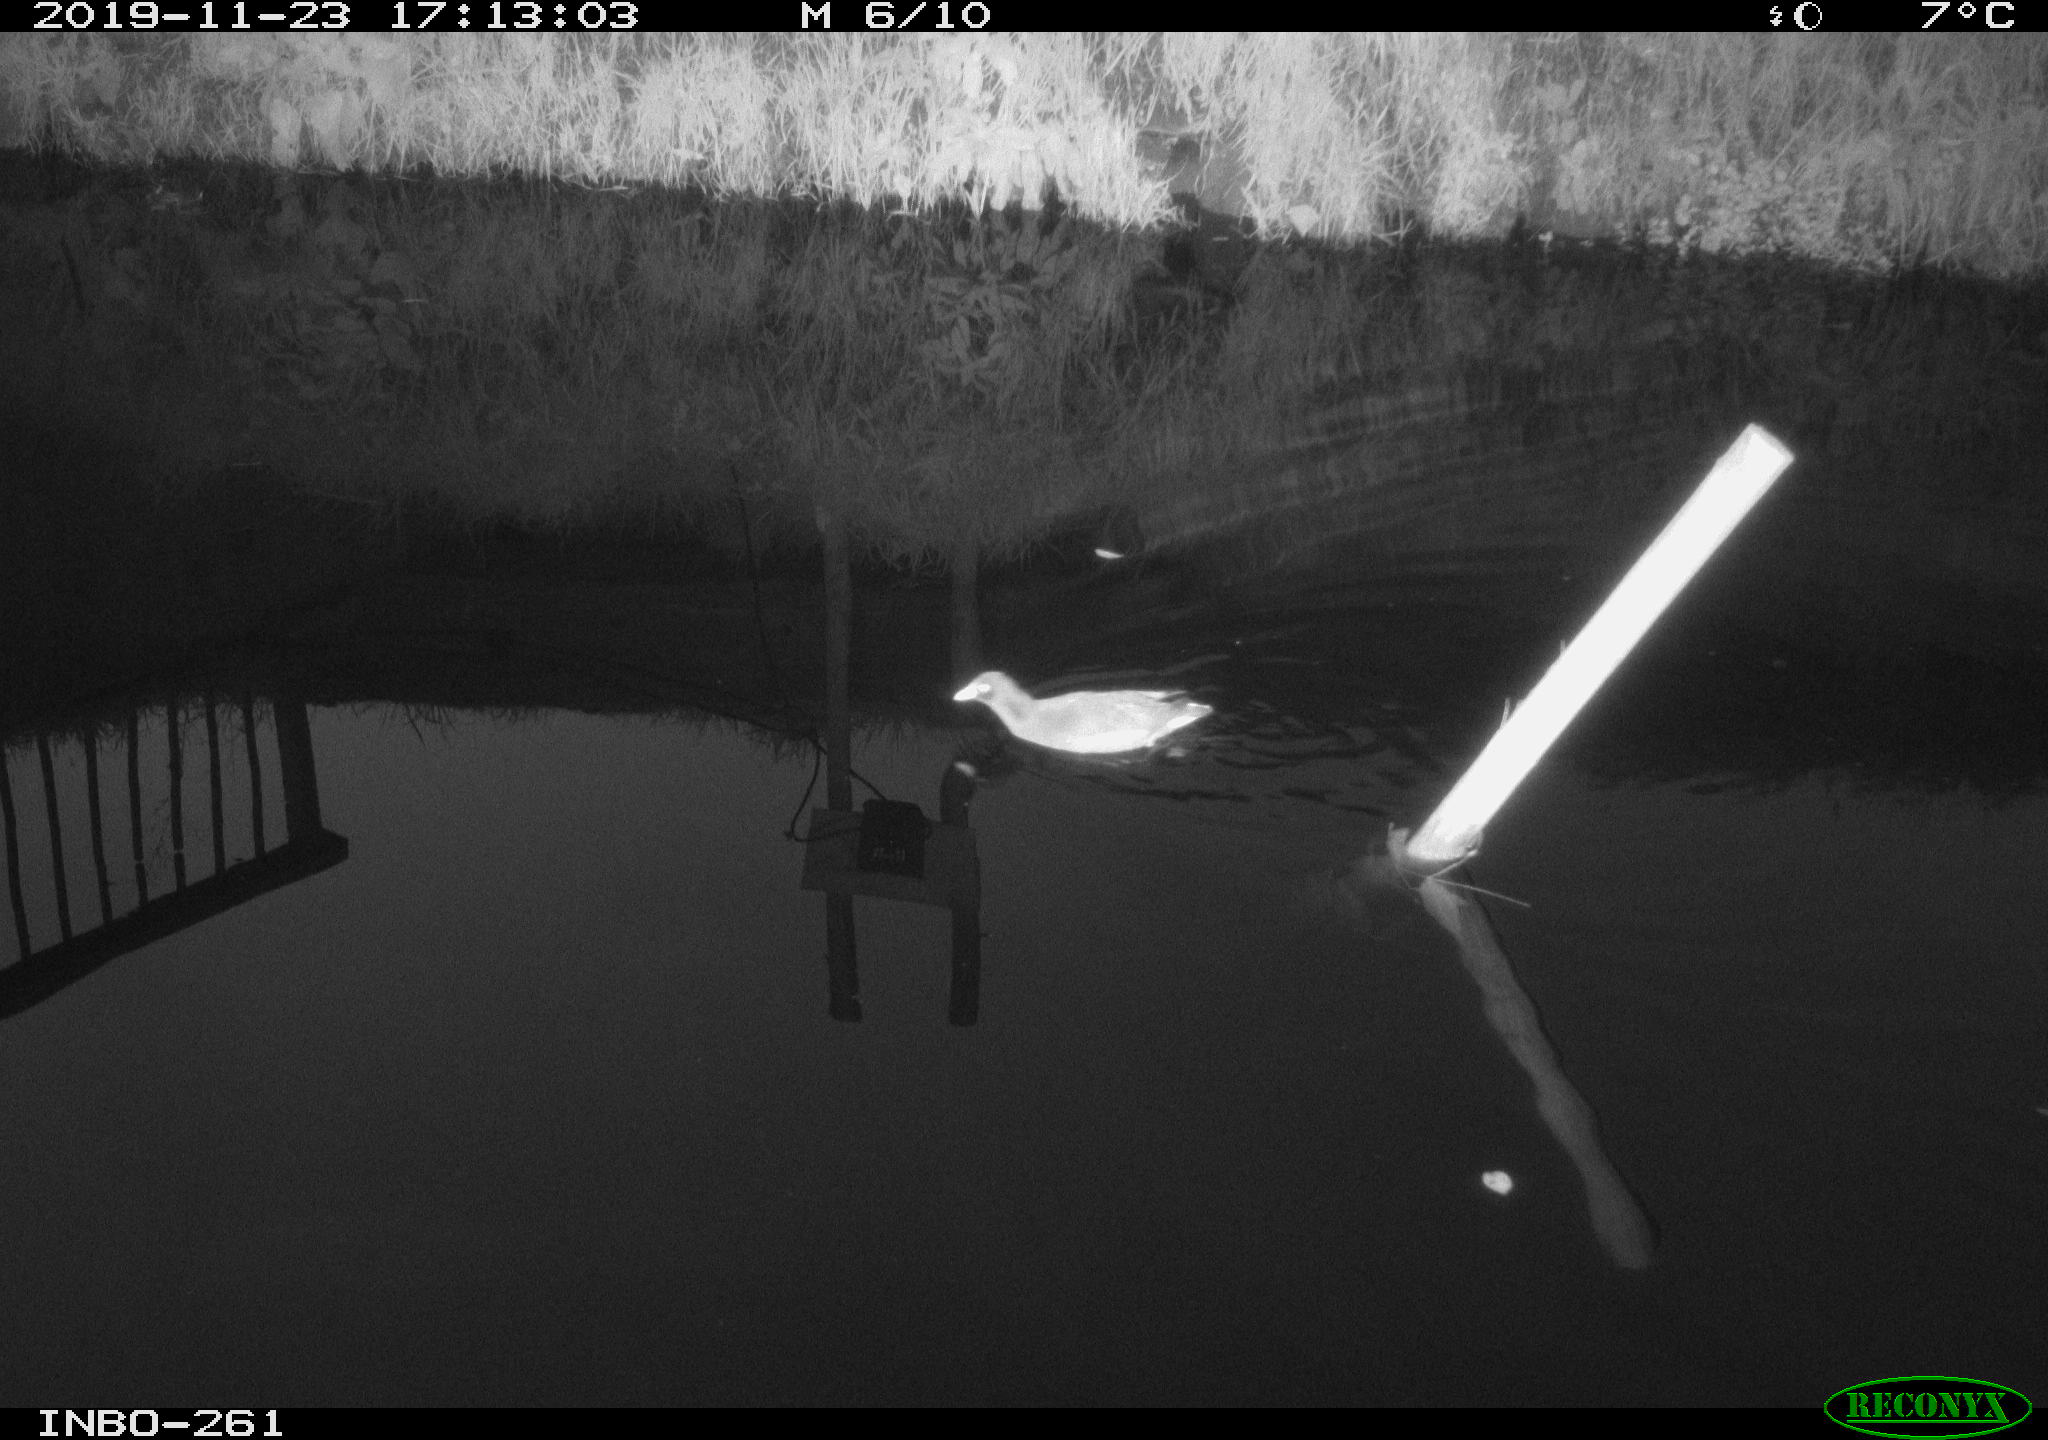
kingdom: Animalia
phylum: Chordata
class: Aves
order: Gruiformes
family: Rallidae
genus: Gallinula
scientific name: Gallinula chloropus
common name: Common moorhen
